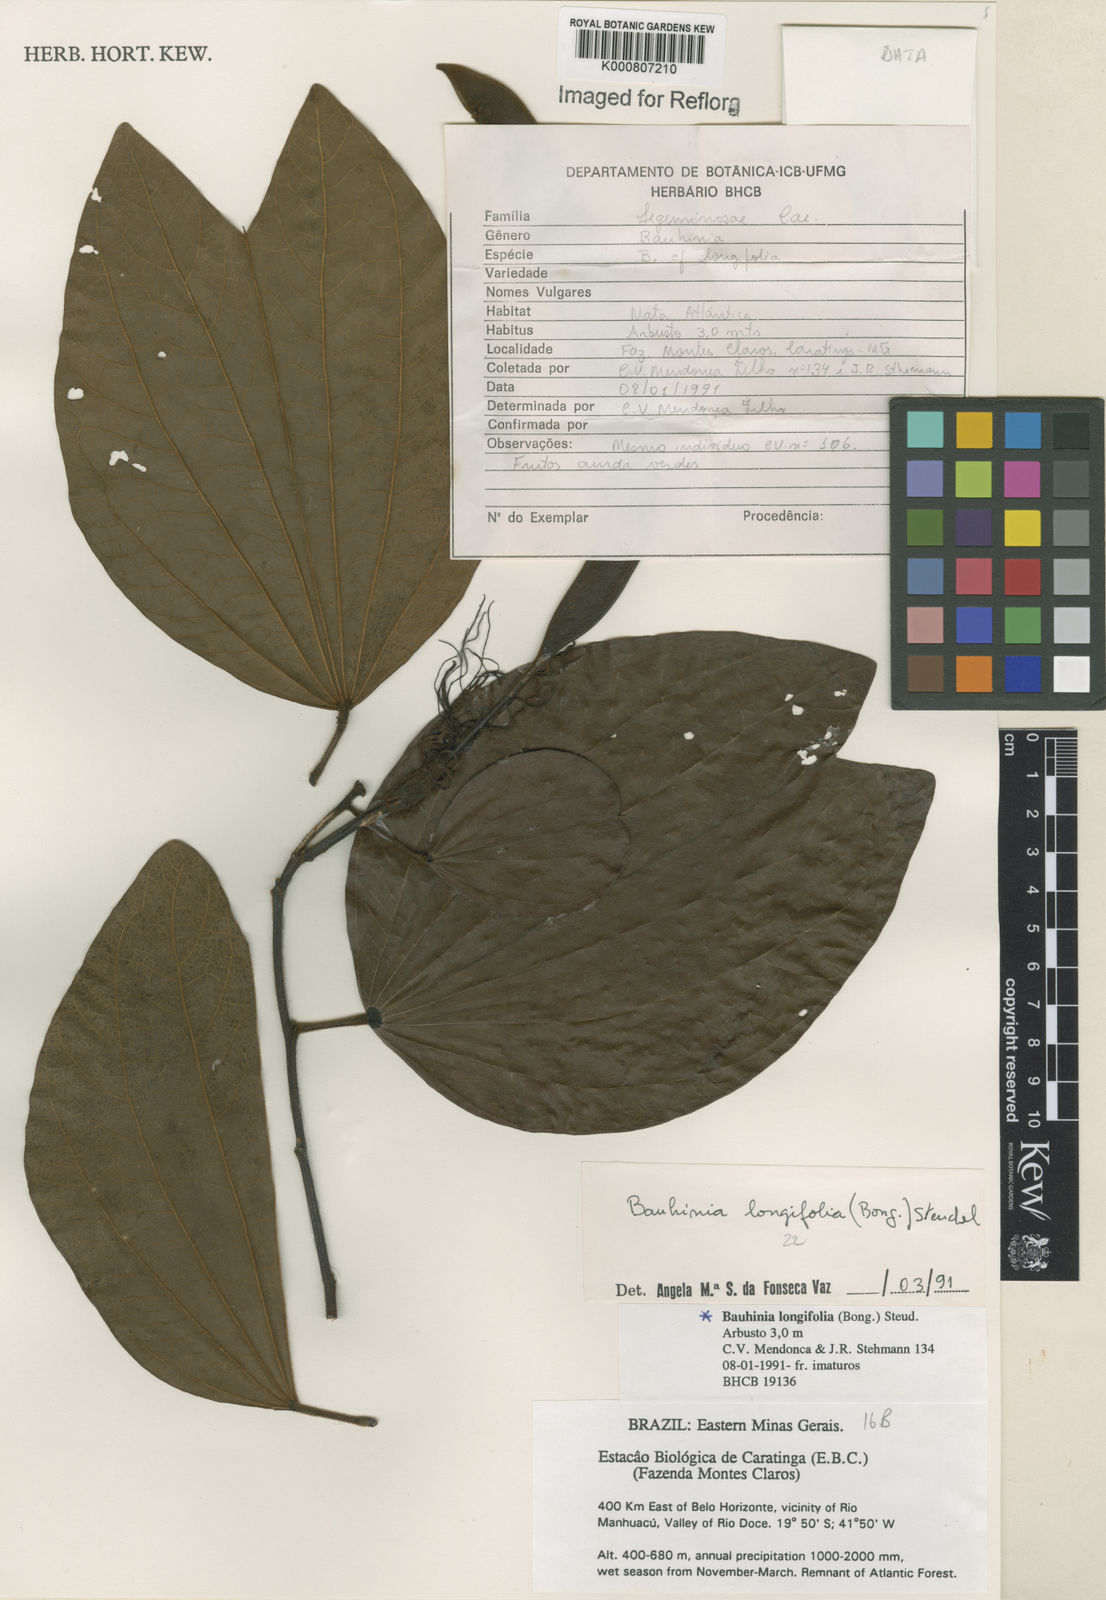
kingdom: Plantae
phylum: Tracheophyta
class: Magnoliopsida
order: Fabales
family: Fabaceae
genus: Bauhinia
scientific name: Bauhinia longifolia
